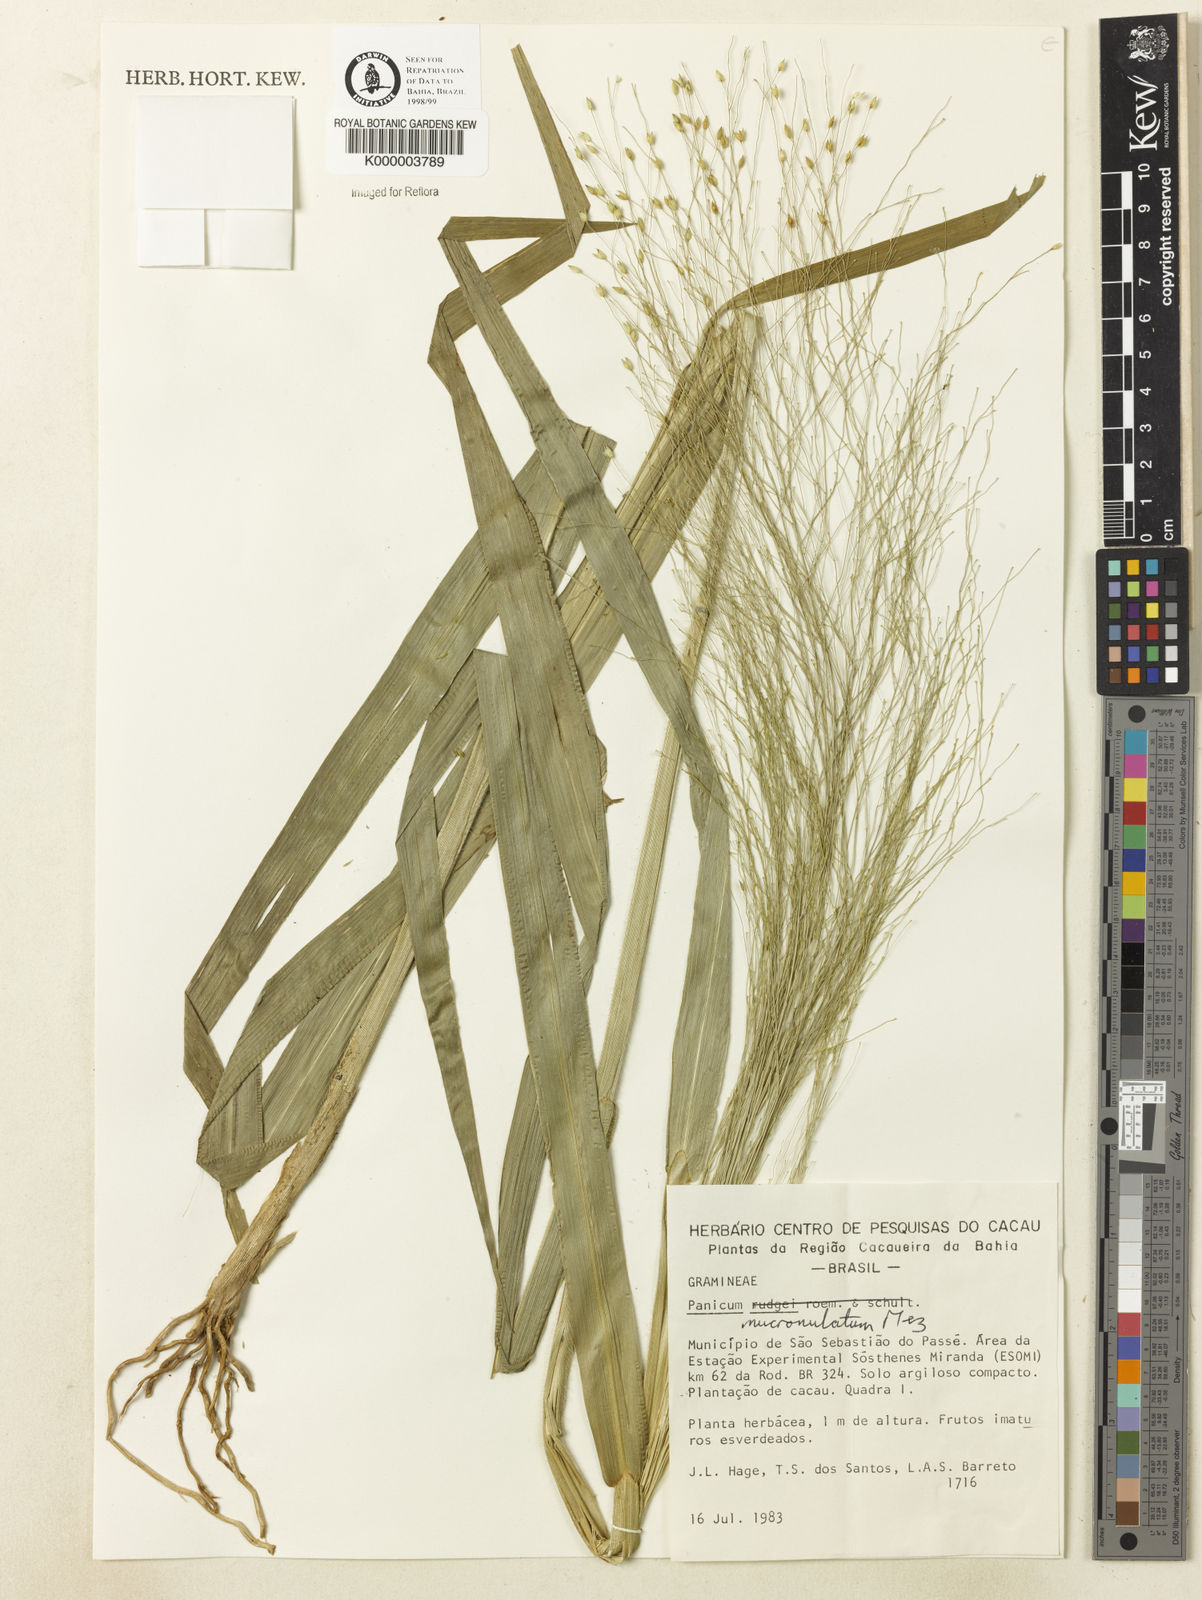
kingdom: Plantae
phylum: Tracheophyta
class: Liliopsida
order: Poales
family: Poaceae
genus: Panicum
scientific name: Panicum mucronulatum
